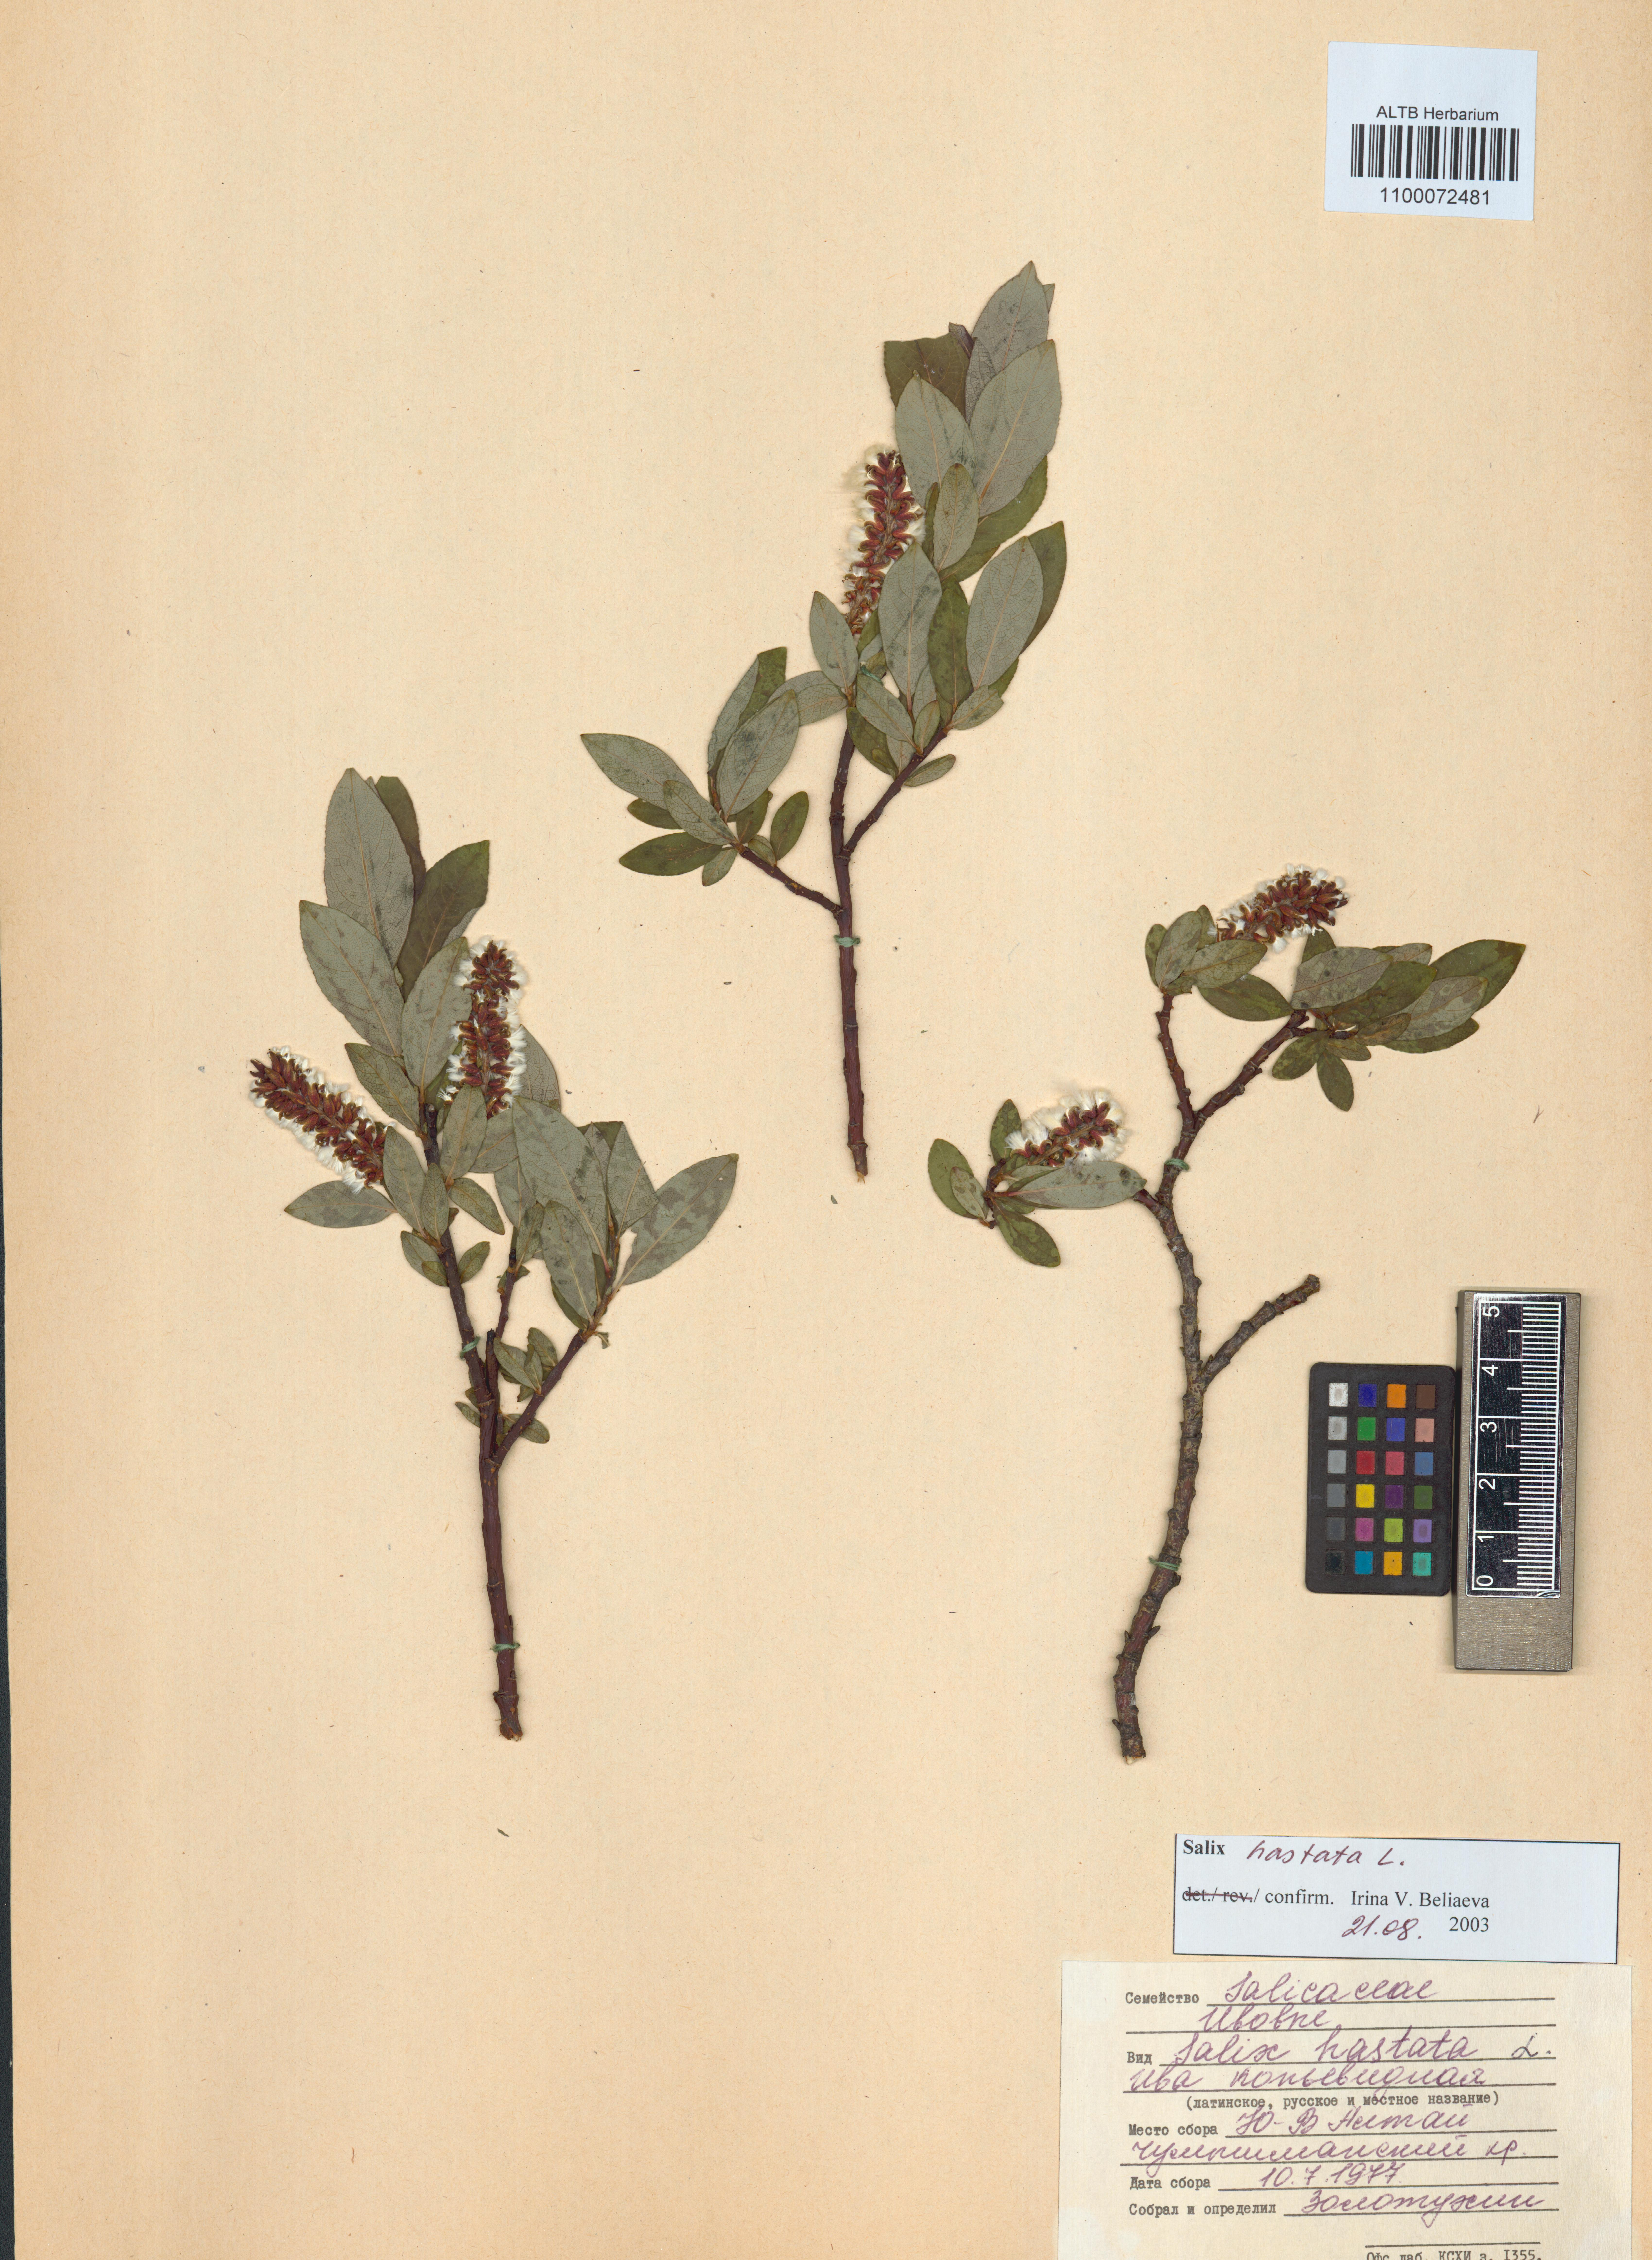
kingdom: Plantae
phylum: Tracheophyta
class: Magnoliopsida
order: Malpighiales
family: Salicaceae
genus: Salix
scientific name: Salix hastata
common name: Halberd willow
